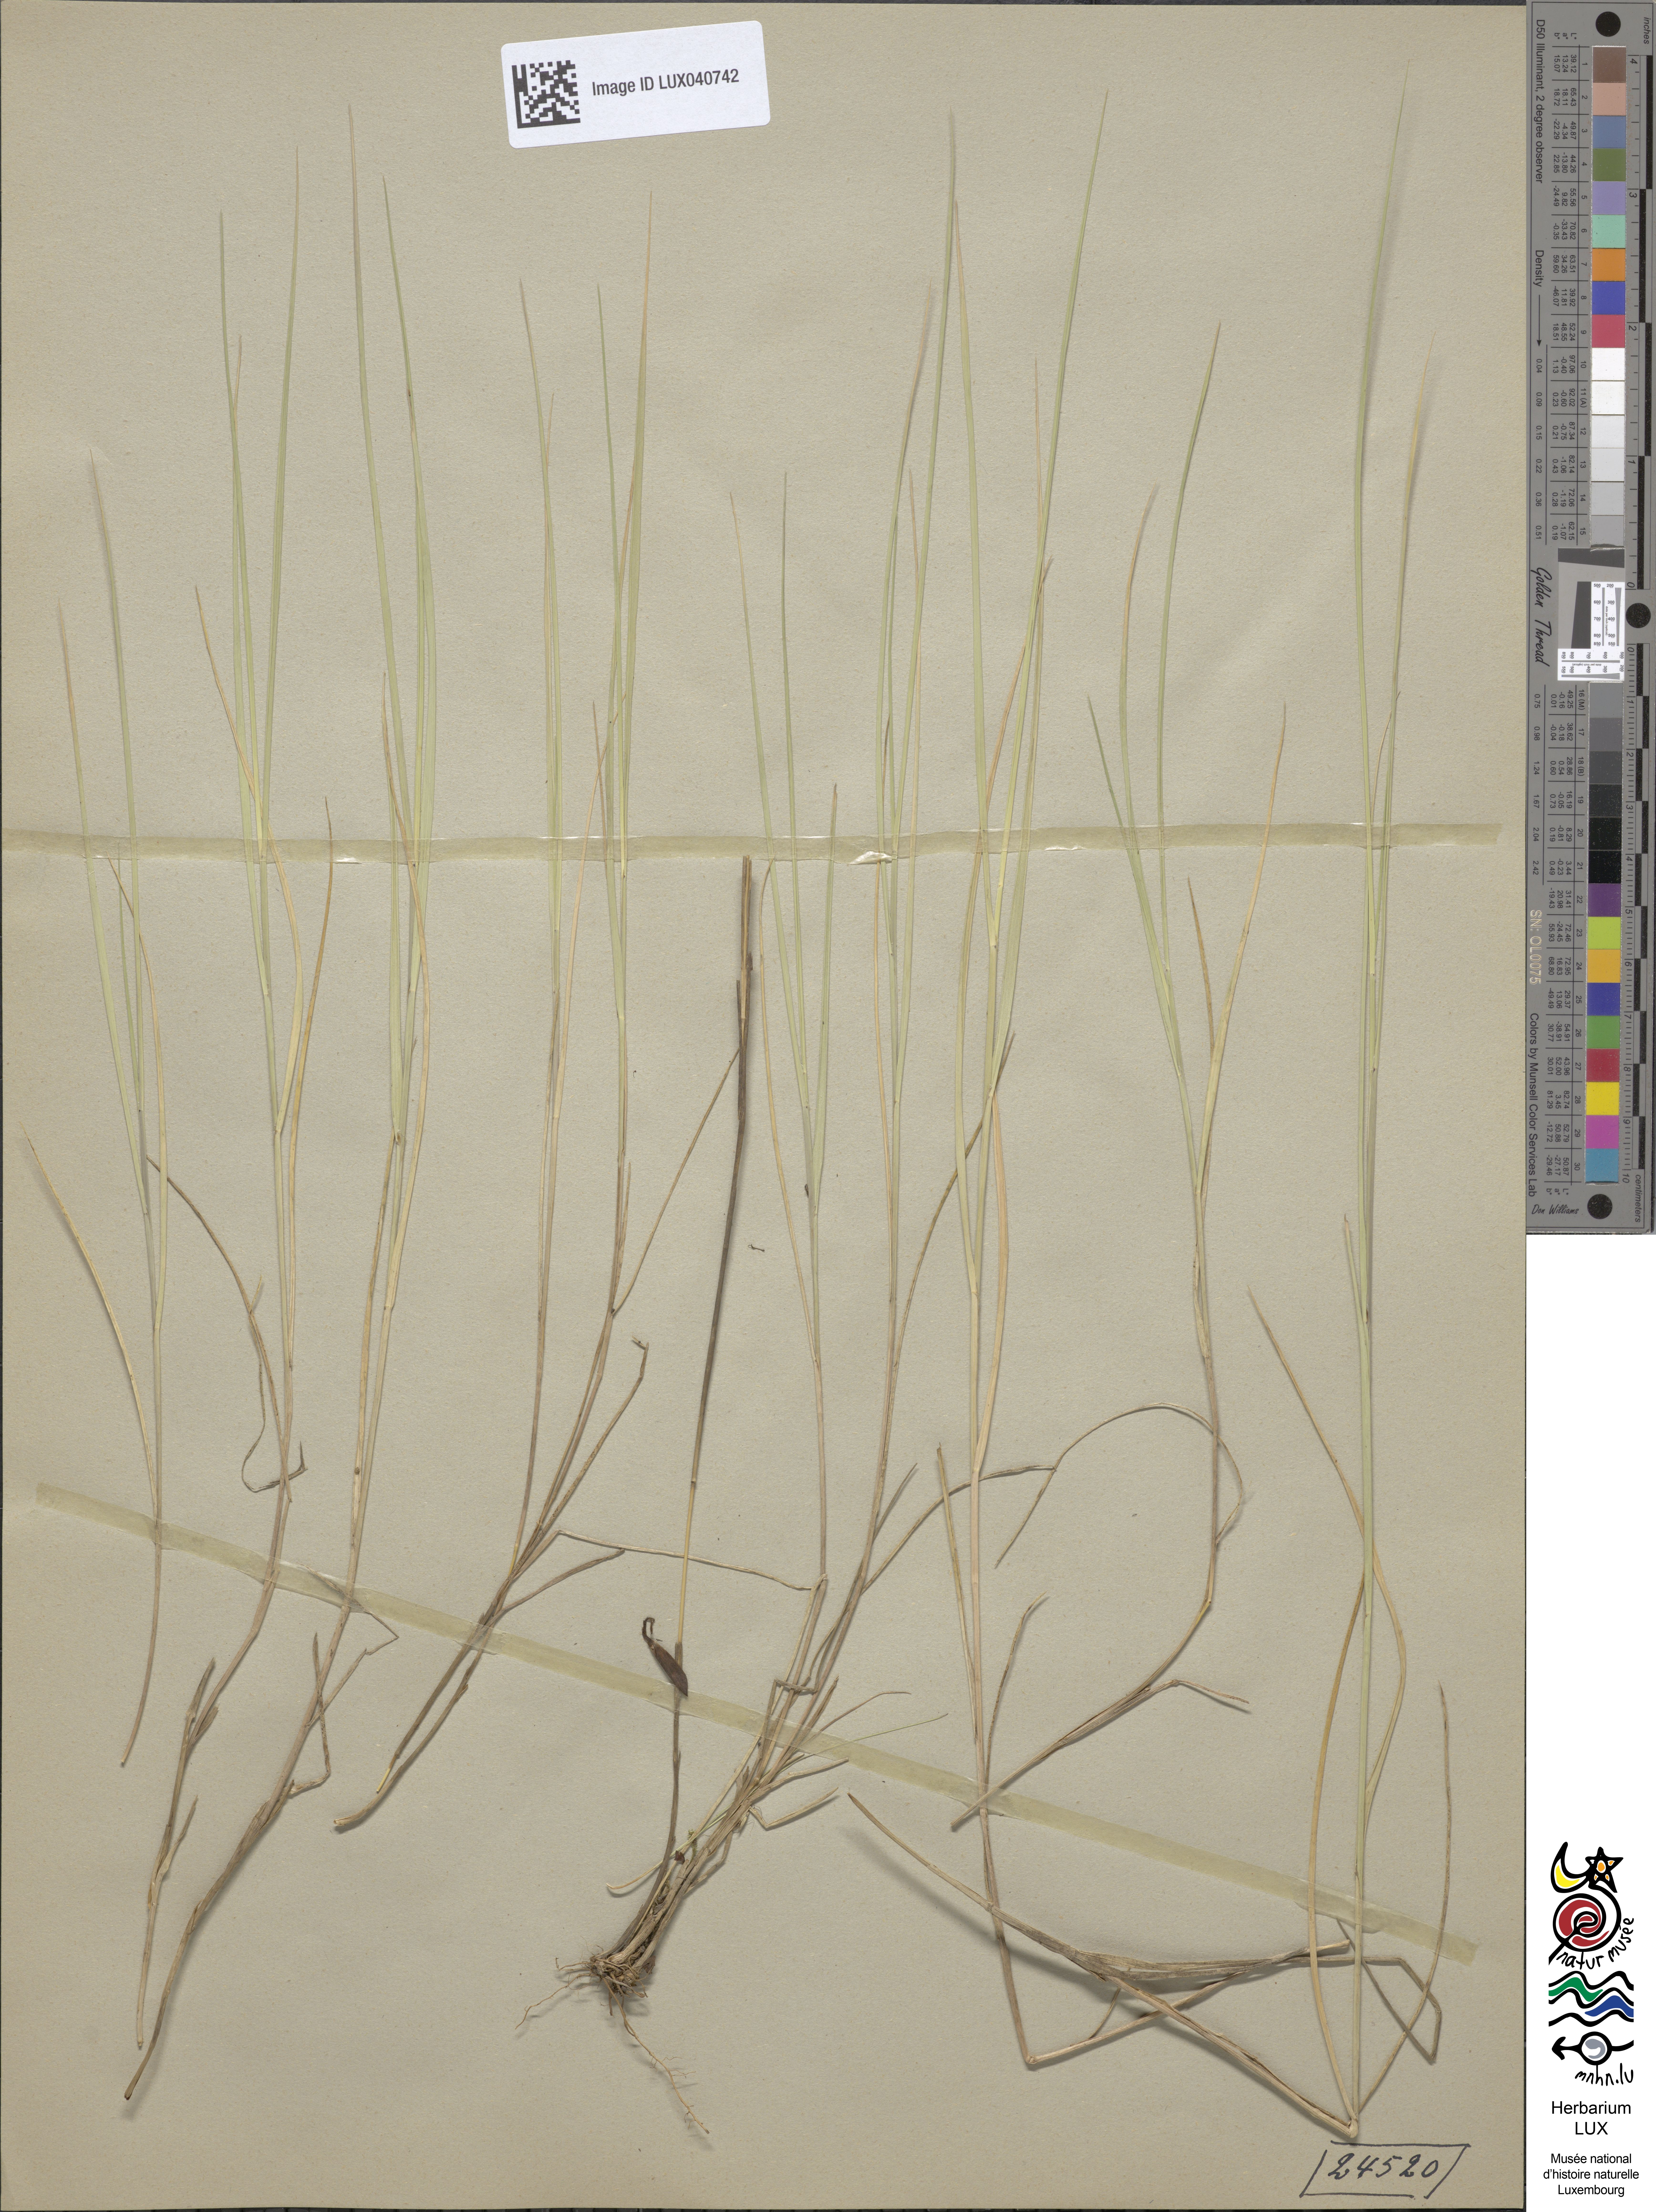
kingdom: Plantae
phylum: Tracheophyta
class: Liliopsida
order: Poales
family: Poaceae
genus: Melica
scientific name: Melica ciliata
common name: Hairy melicgrass
